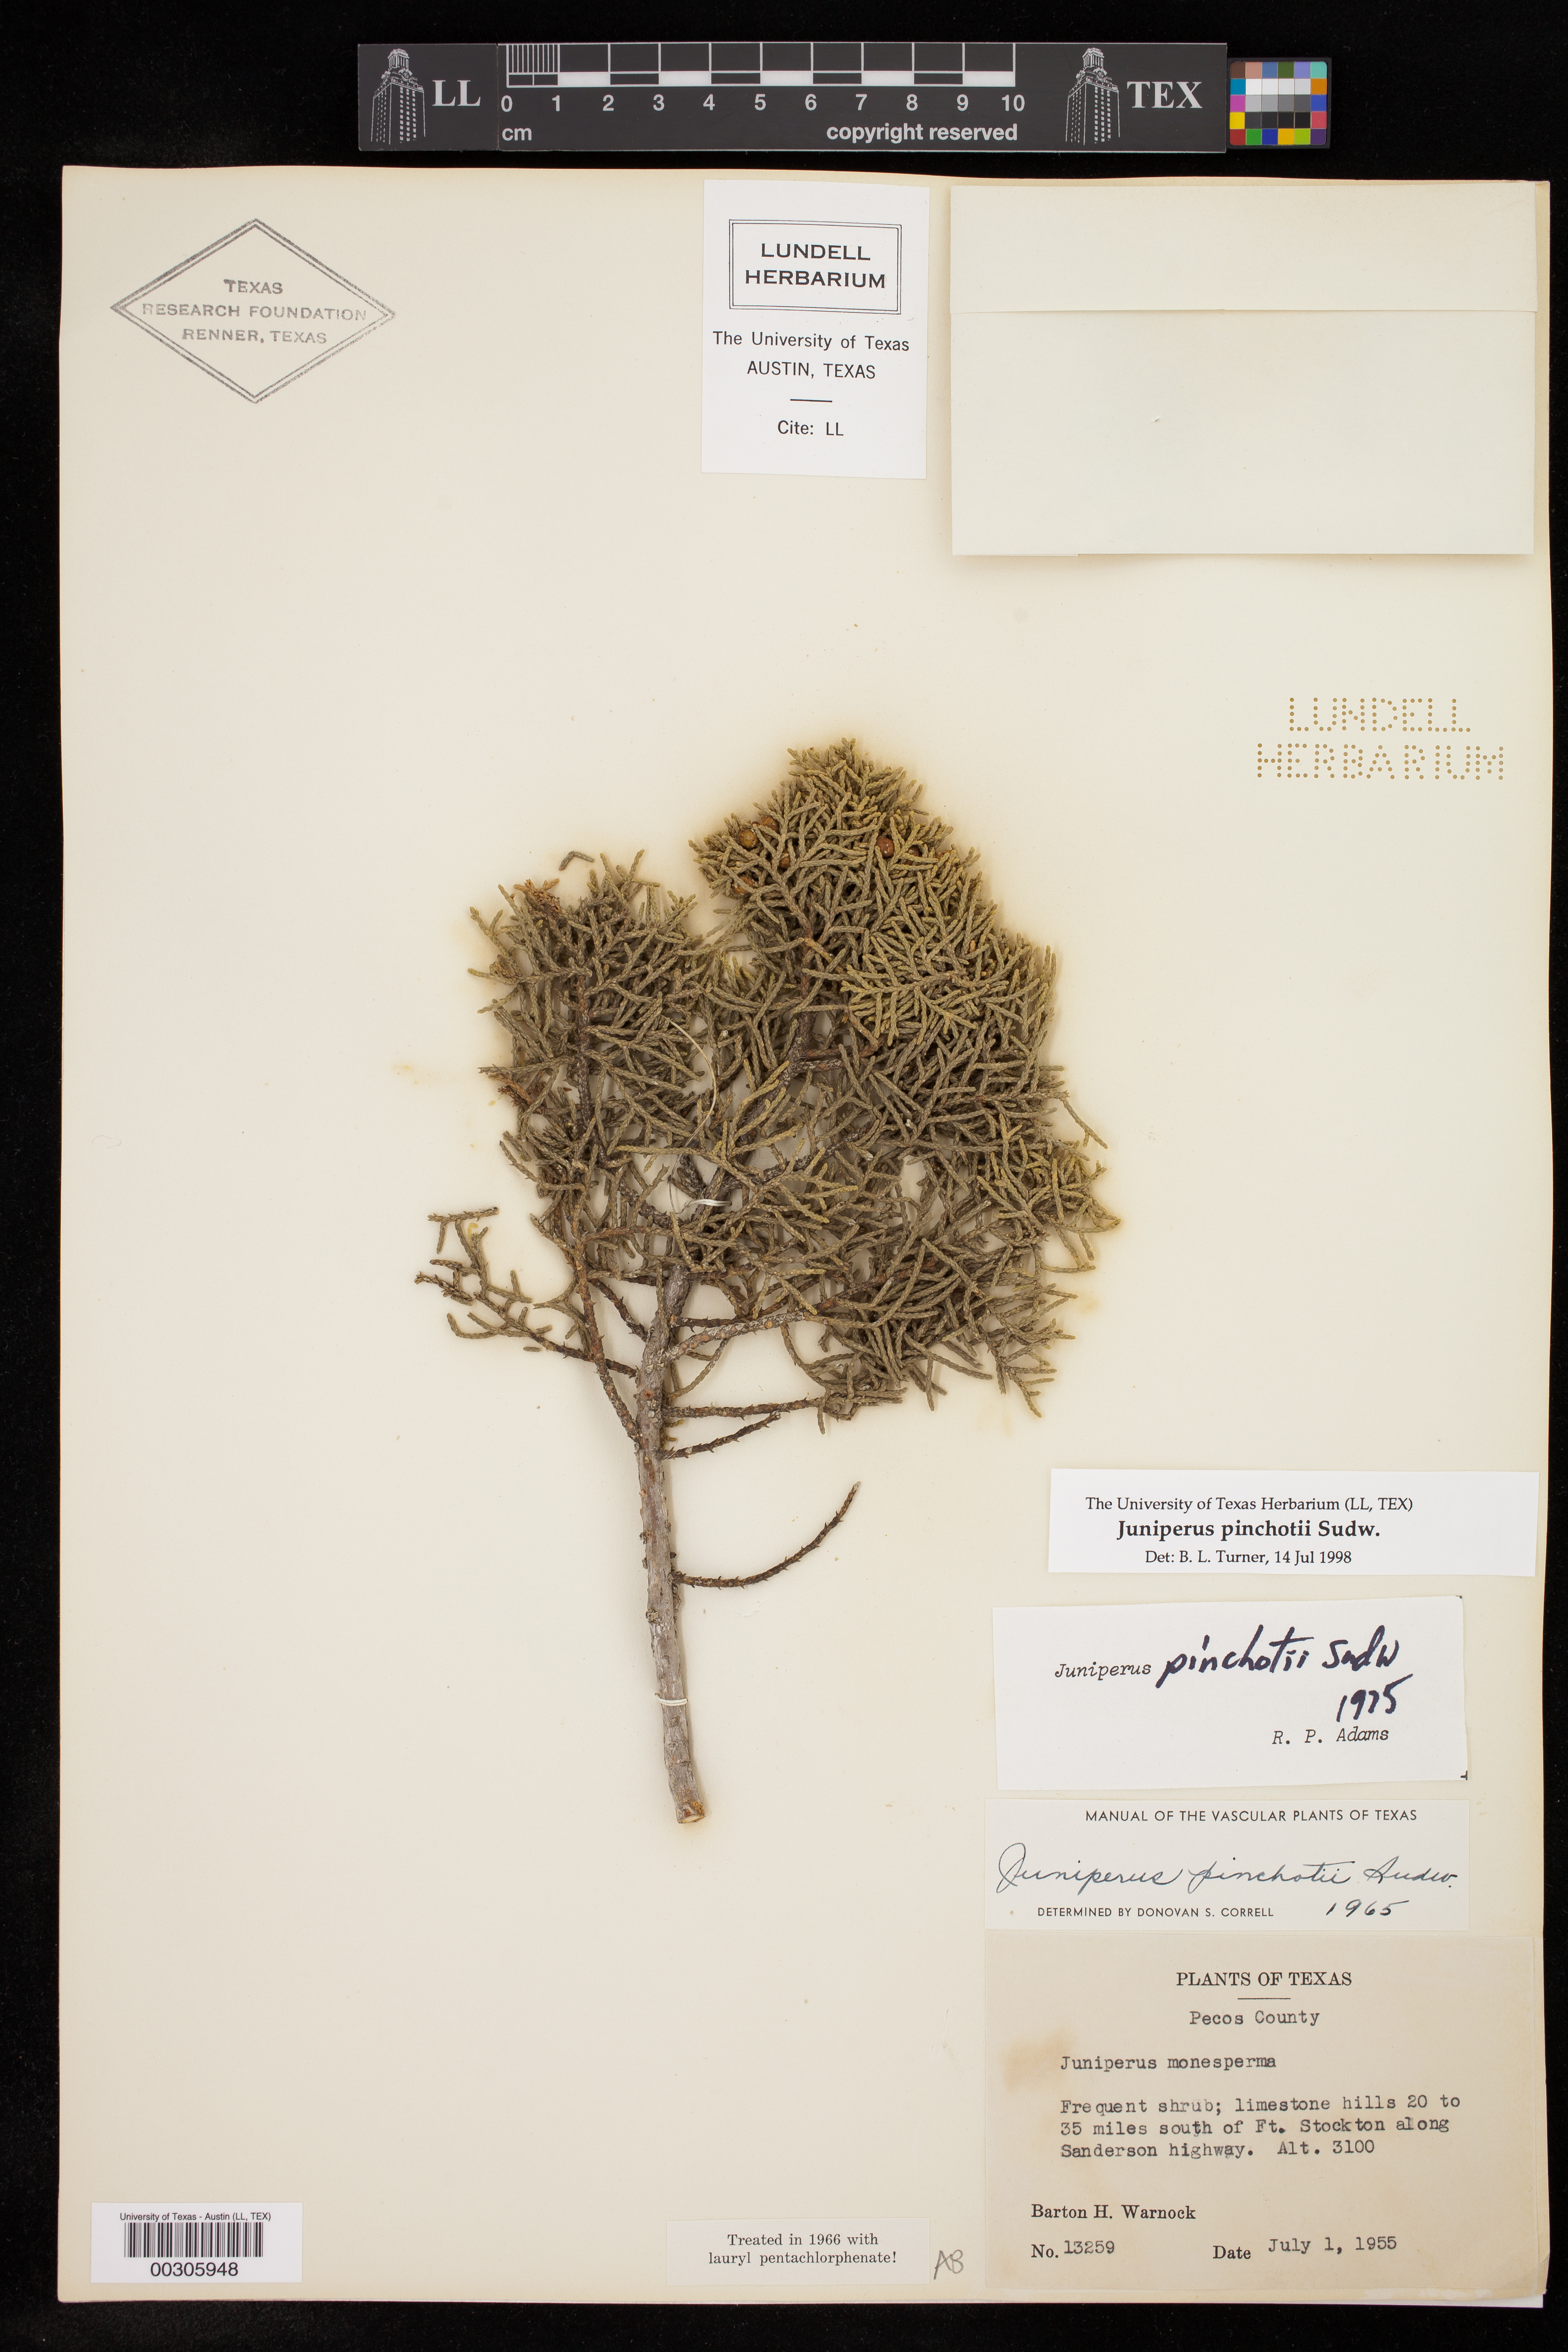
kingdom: Plantae
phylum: Tracheophyta
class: Pinopsida
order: Pinales
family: Cupressaceae
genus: Juniperus
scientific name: Juniperus pinchotii
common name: Pinchot juniper
